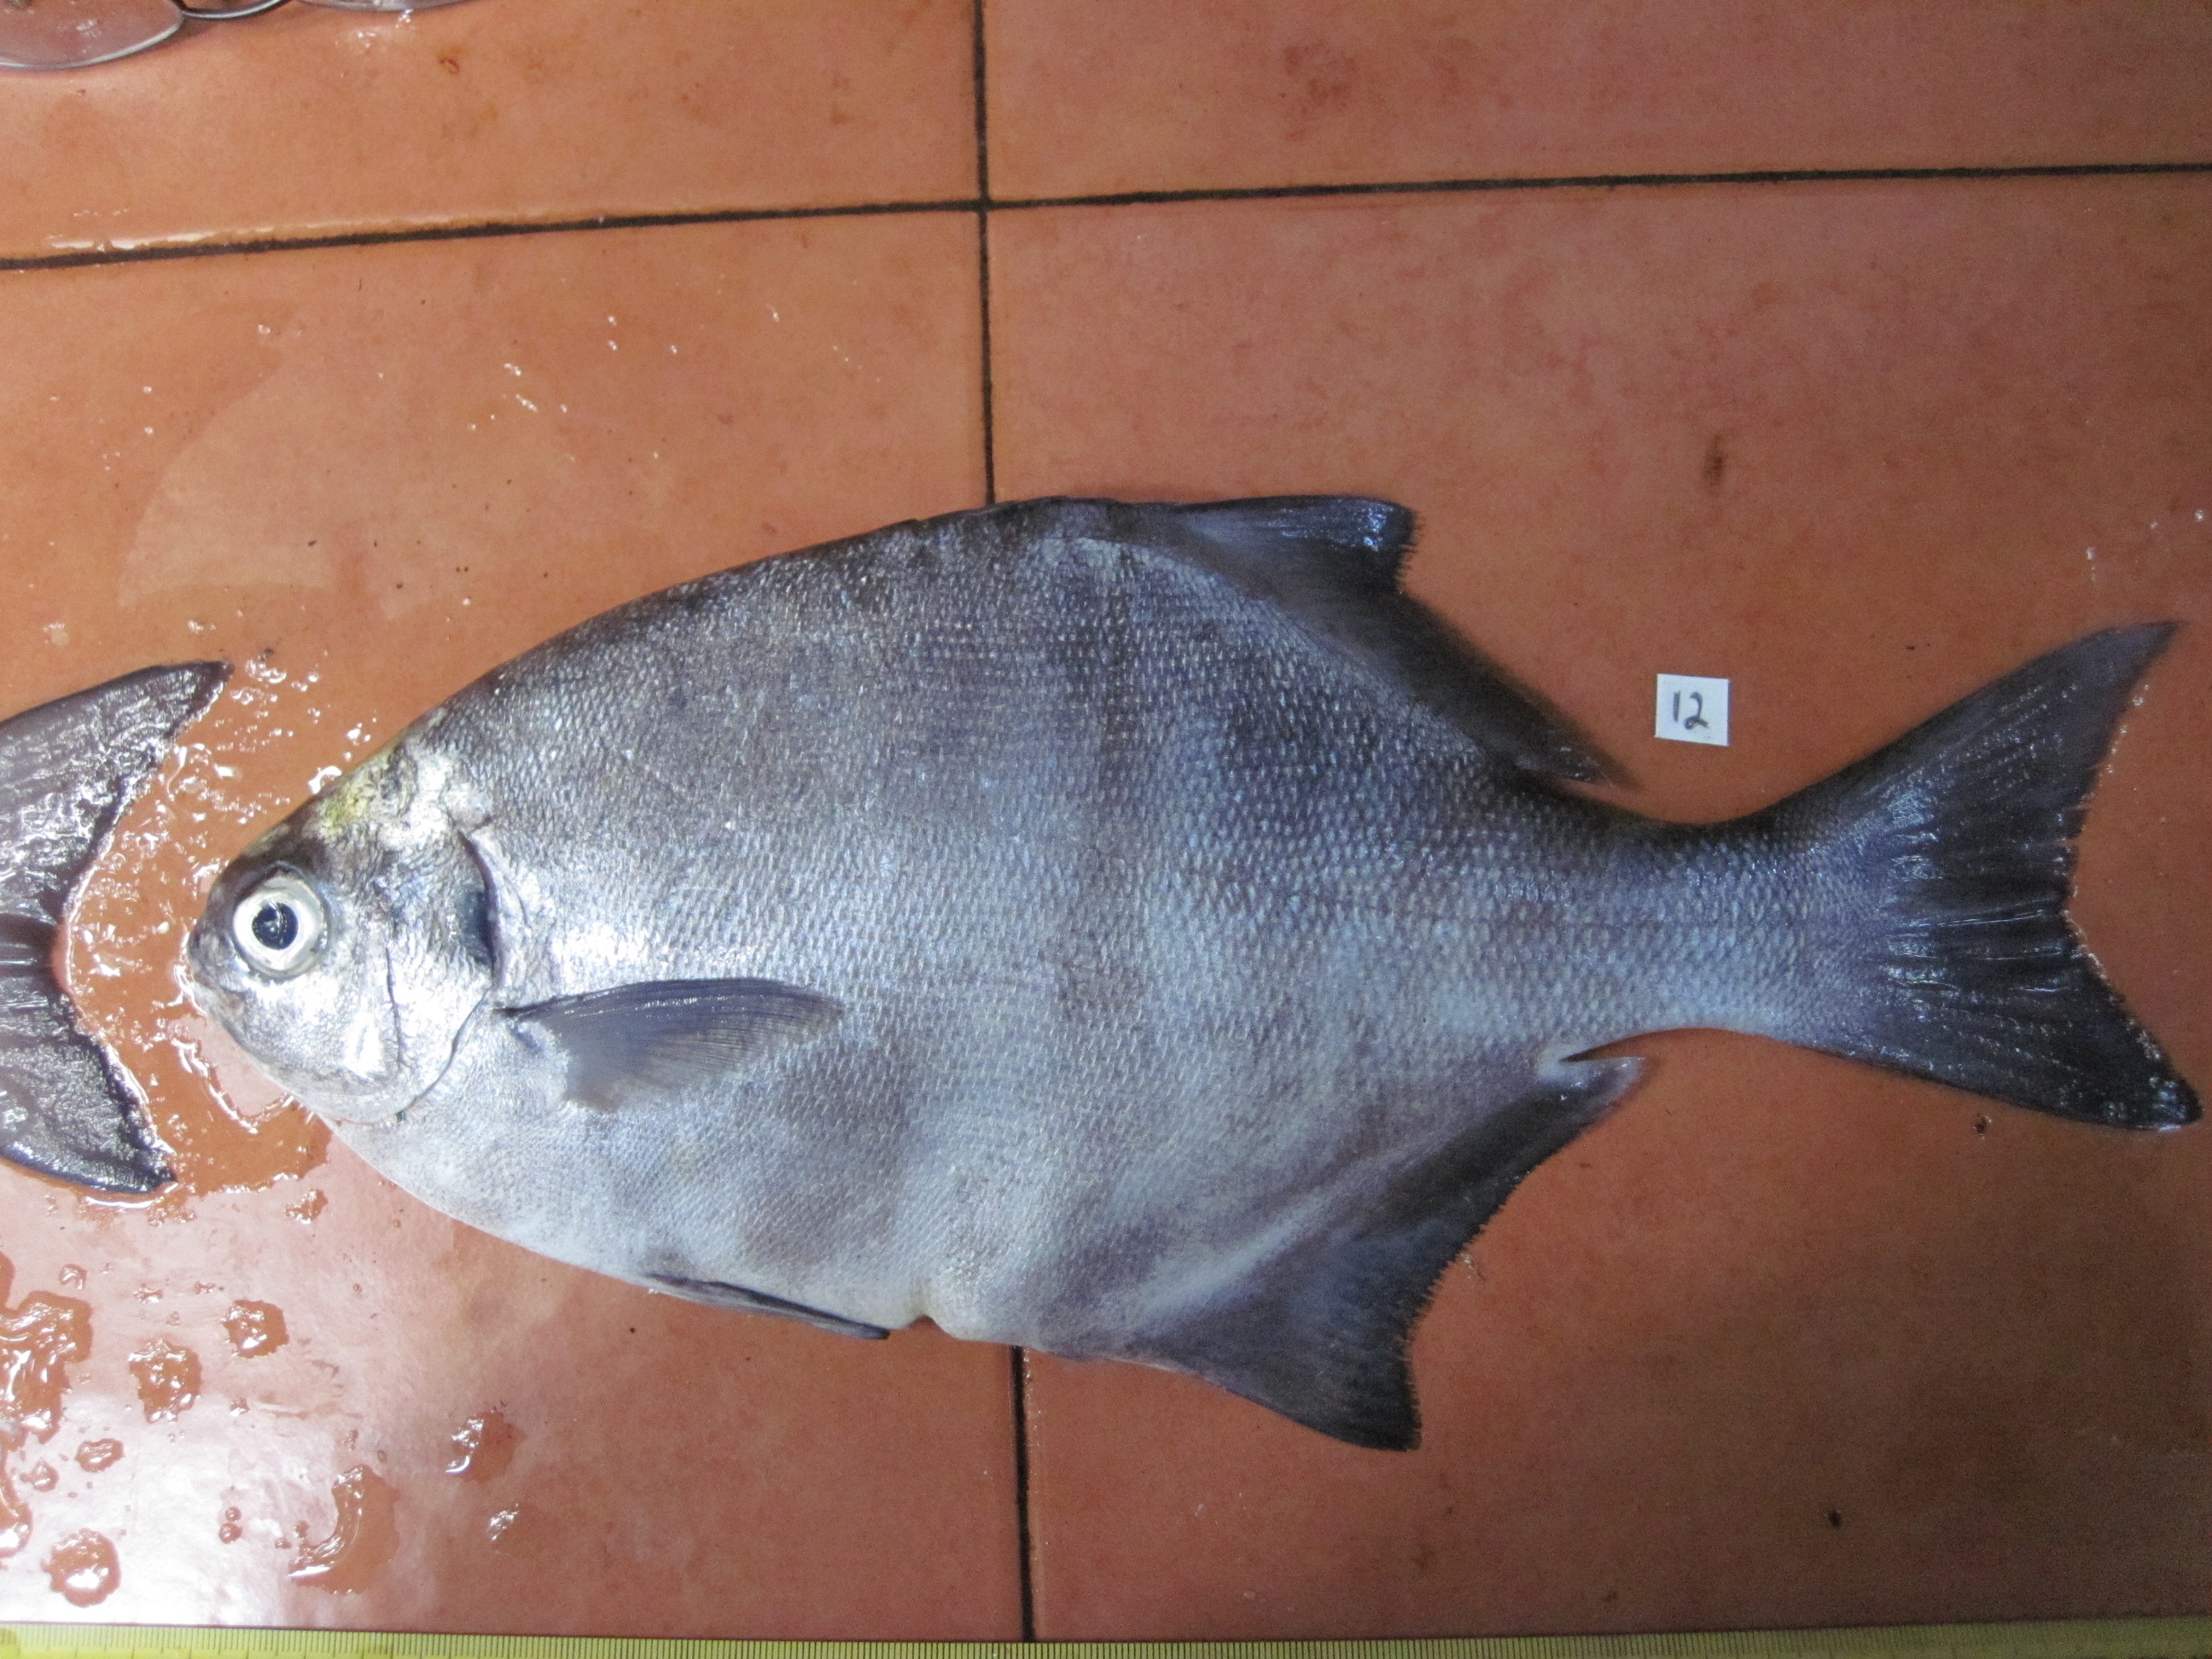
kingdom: Animalia
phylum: Chordata
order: Perciformes
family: Kyphosidae
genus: Neoscorpis
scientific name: Neoscorpis lithophilus
